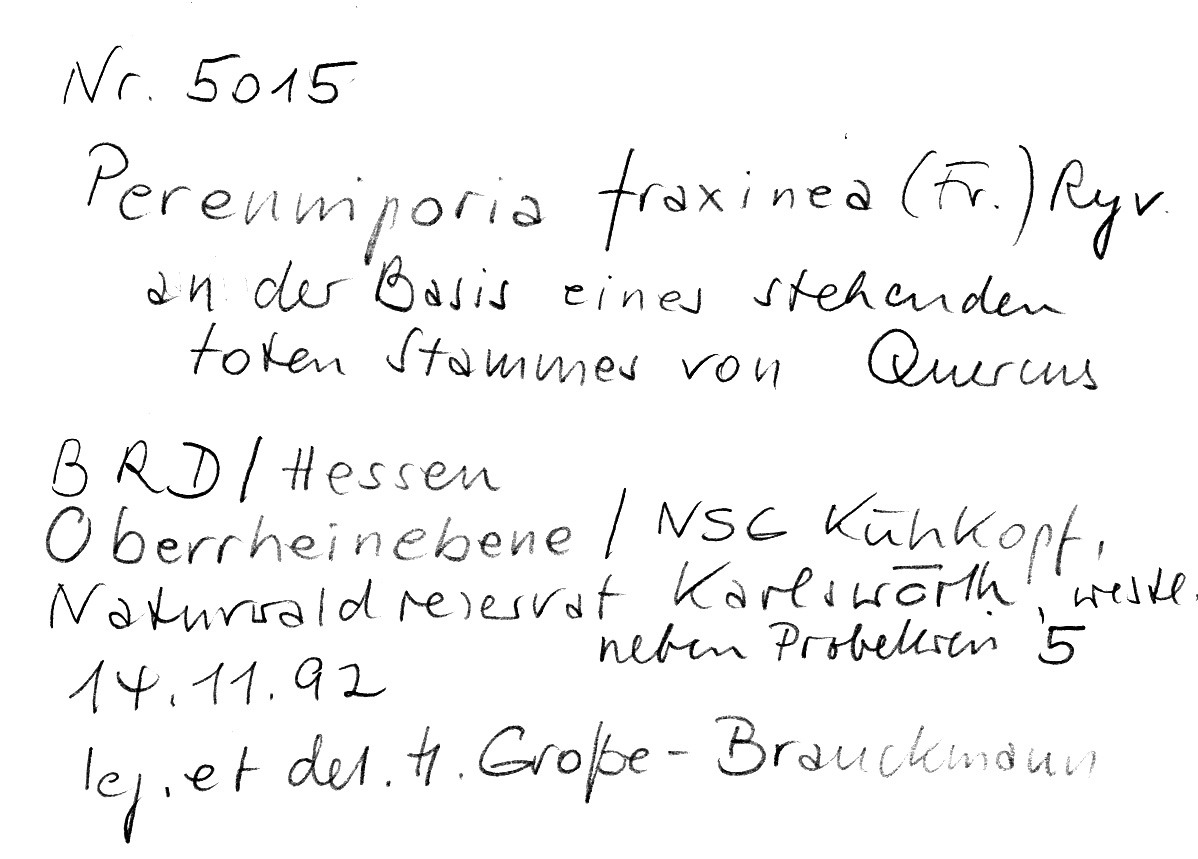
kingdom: Plantae
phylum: Tracheophyta
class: Magnoliopsida
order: Fagales
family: Fagaceae
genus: Quercus
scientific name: Quercus
